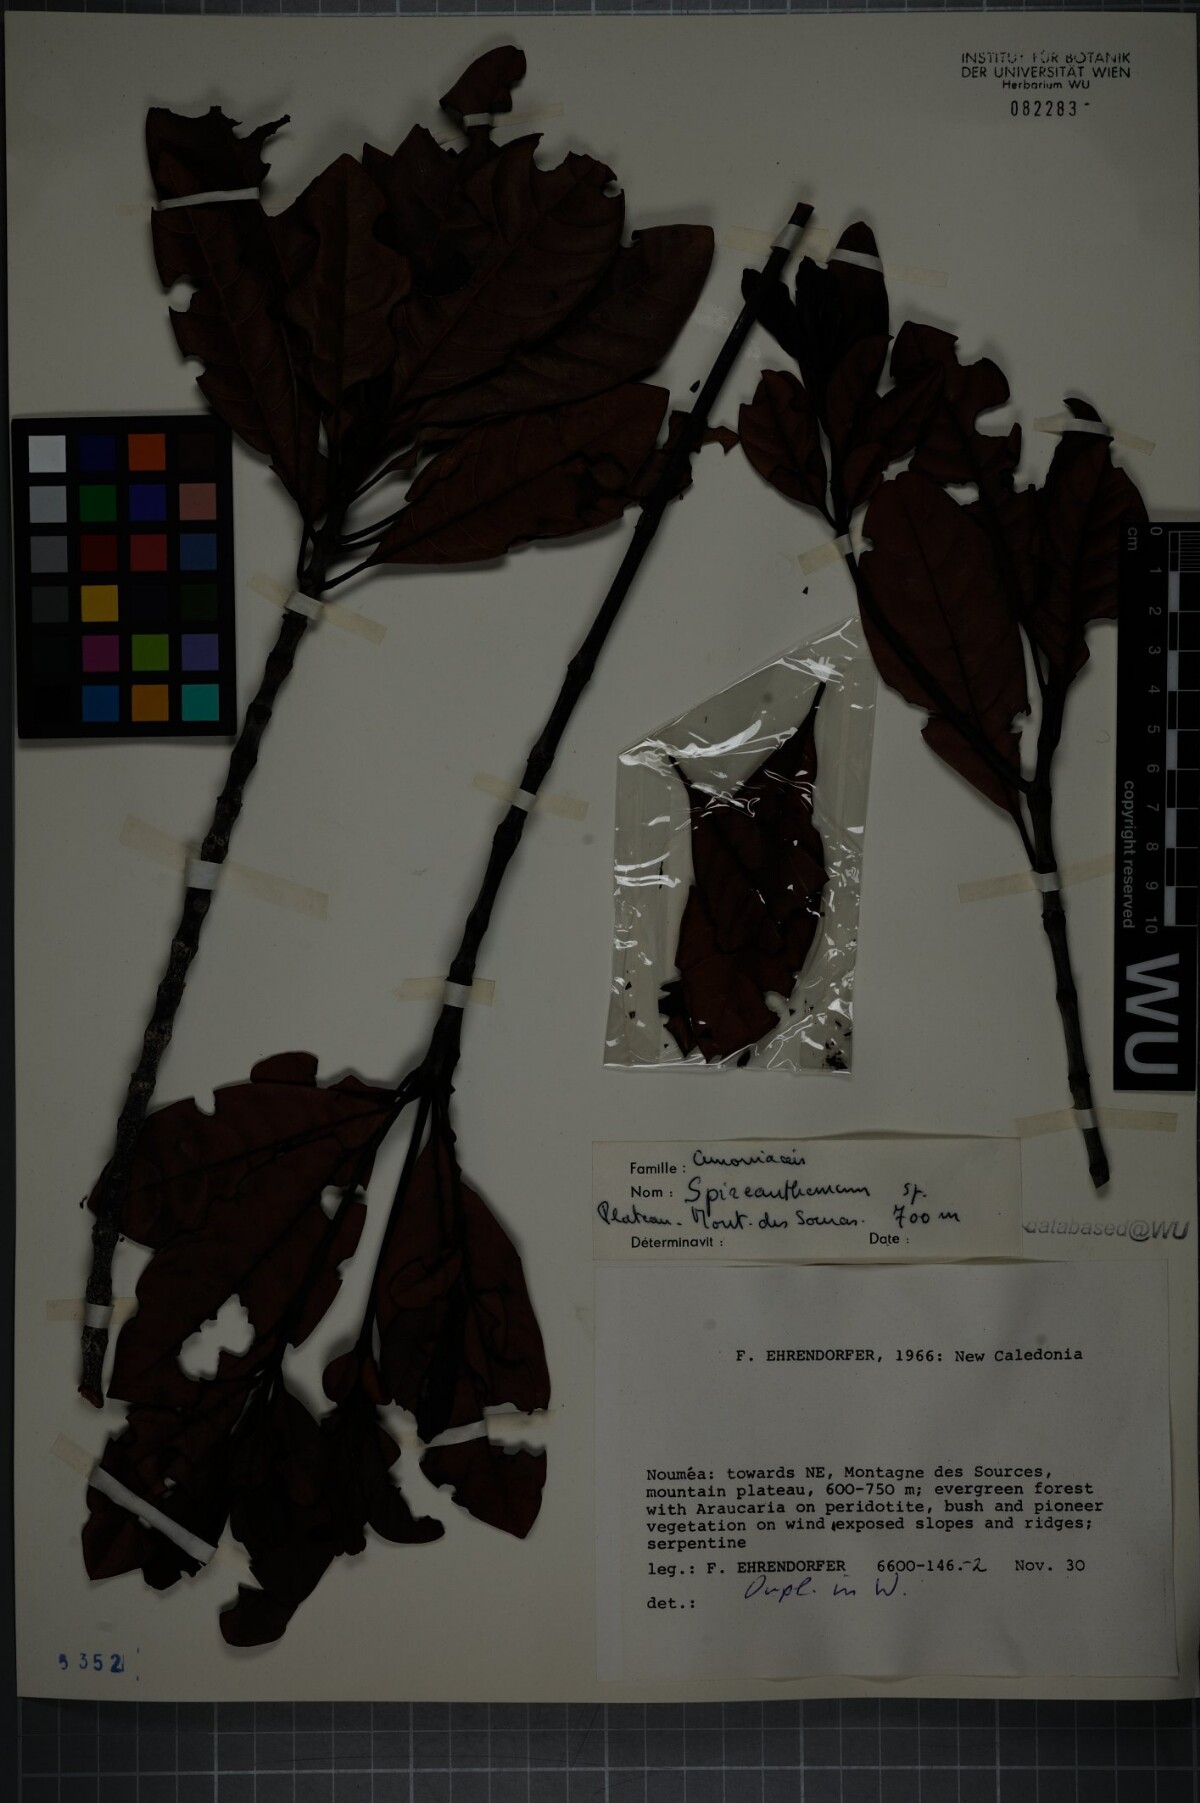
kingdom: Plantae
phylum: Tracheophyta
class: Magnoliopsida
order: Oxalidales
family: Cunoniaceae
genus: Spiraeanthemum
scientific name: Spiraeanthemum
